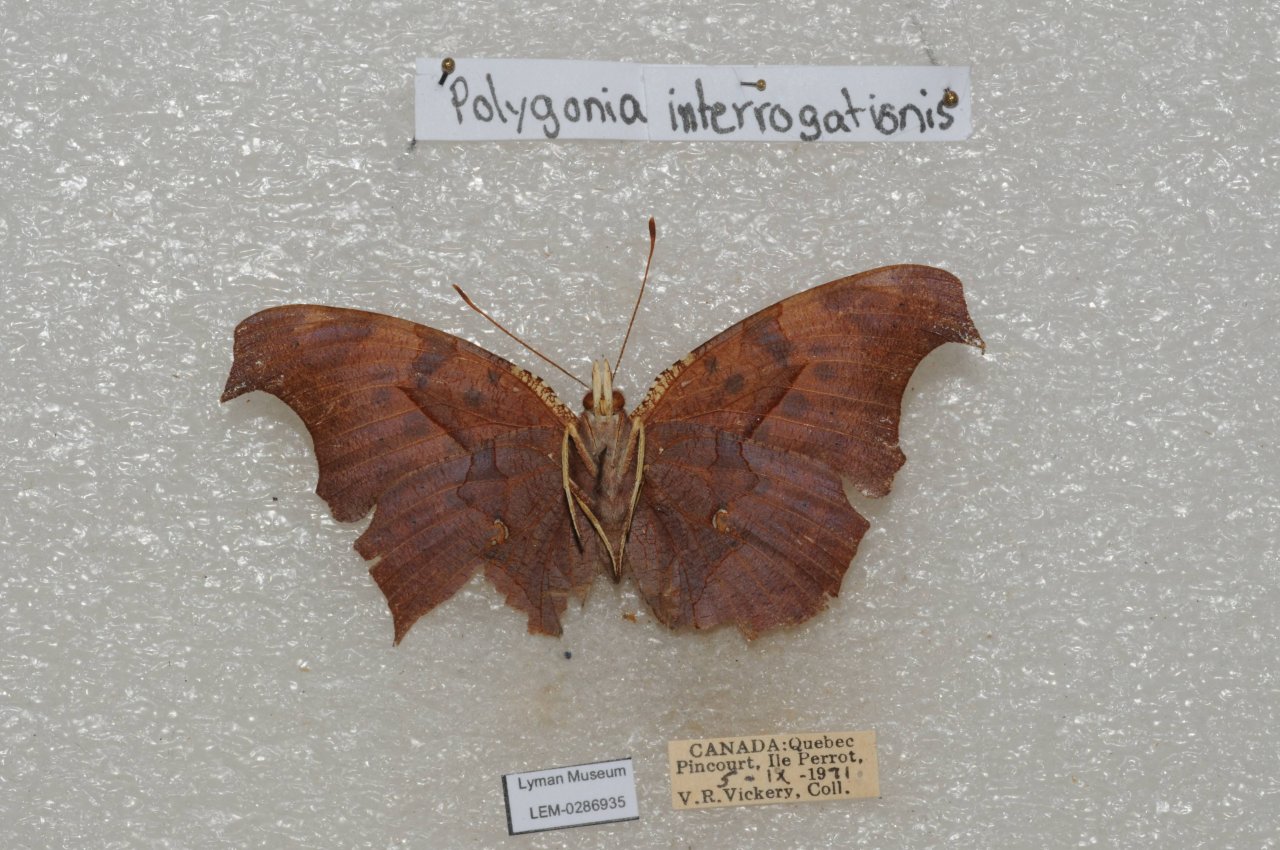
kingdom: Animalia
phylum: Arthropoda
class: Insecta
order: Lepidoptera
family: Nymphalidae
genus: Polygonia
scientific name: Polygonia interrogationis
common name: Question Mark
